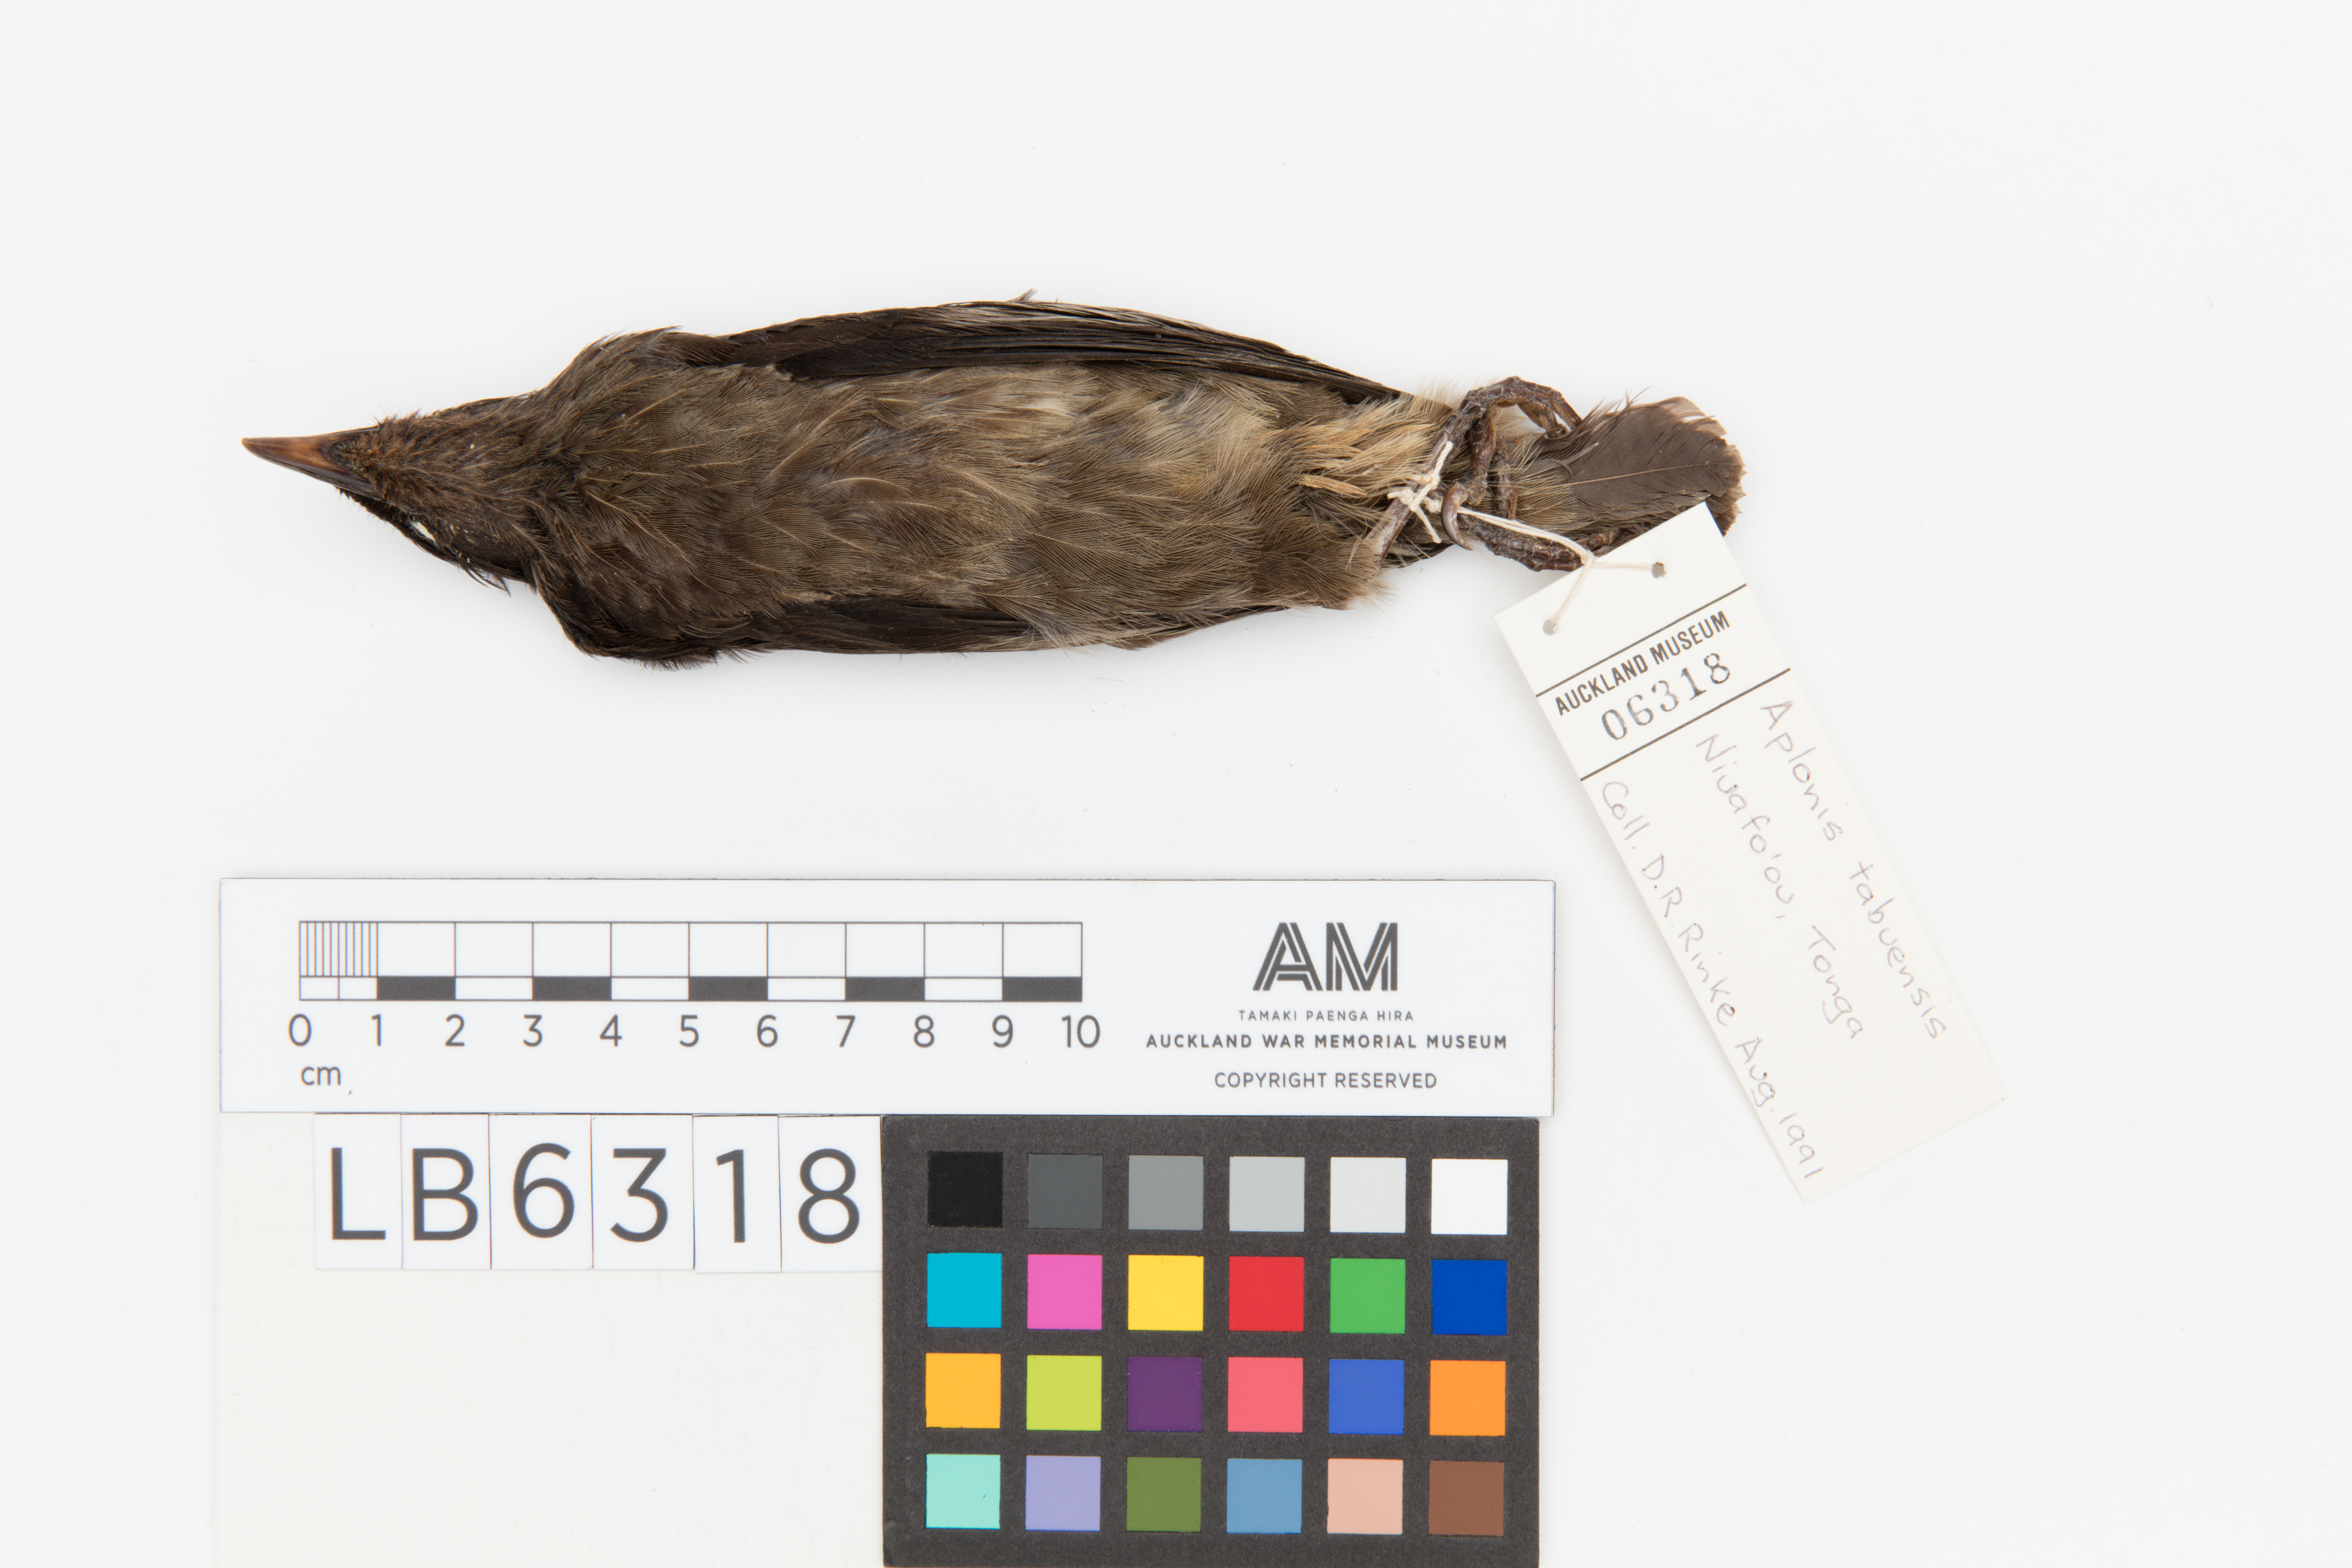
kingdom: Animalia
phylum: Chordata
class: Aves
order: Passeriformes
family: Sturnidae
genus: Aplonis
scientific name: Aplonis tabuensis
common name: Polynesian starling
